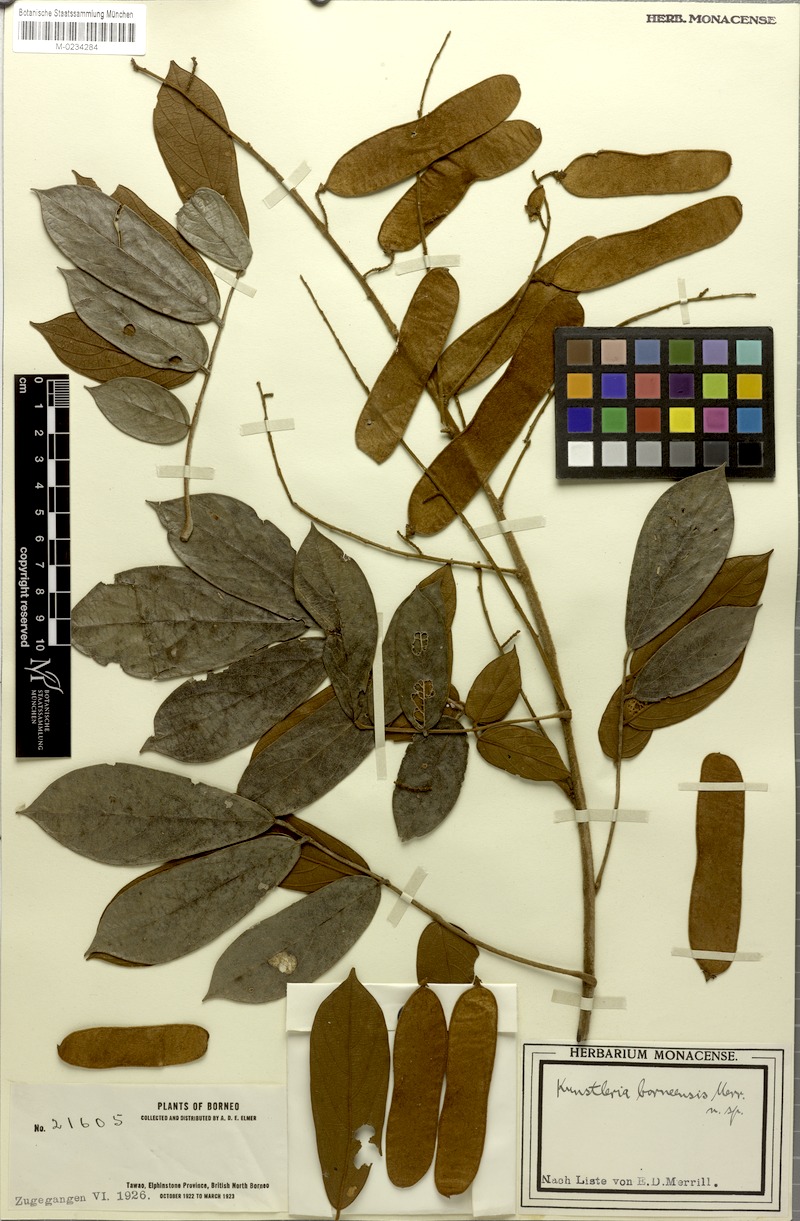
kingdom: Plantae
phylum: Tracheophyta
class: Magnoliopsida
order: Fabales
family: Fabaceae
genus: Kunstleria
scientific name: Kunstleria forbesii
